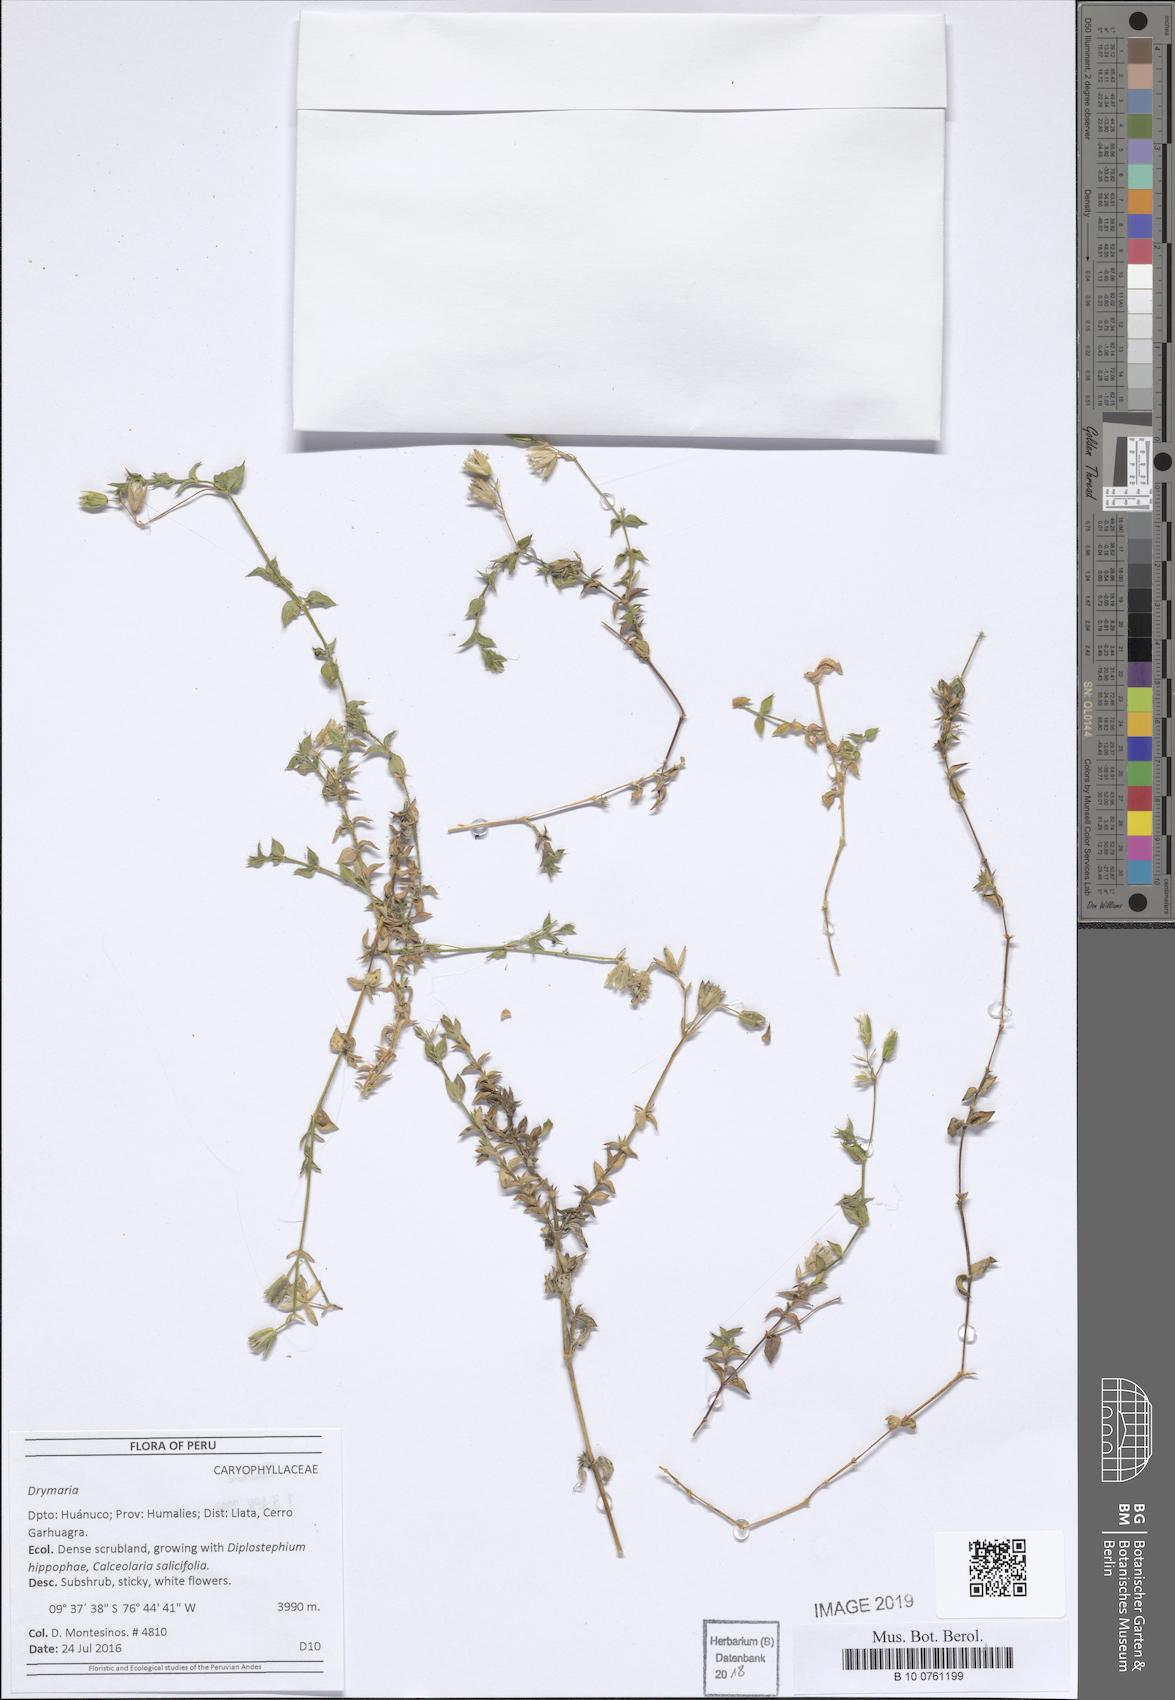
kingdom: Plantae
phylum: Tracheophyta
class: Magnoliopsida
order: Caryophyllales
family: Caryophyllaceae
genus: Drymaria
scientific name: Drymaria
